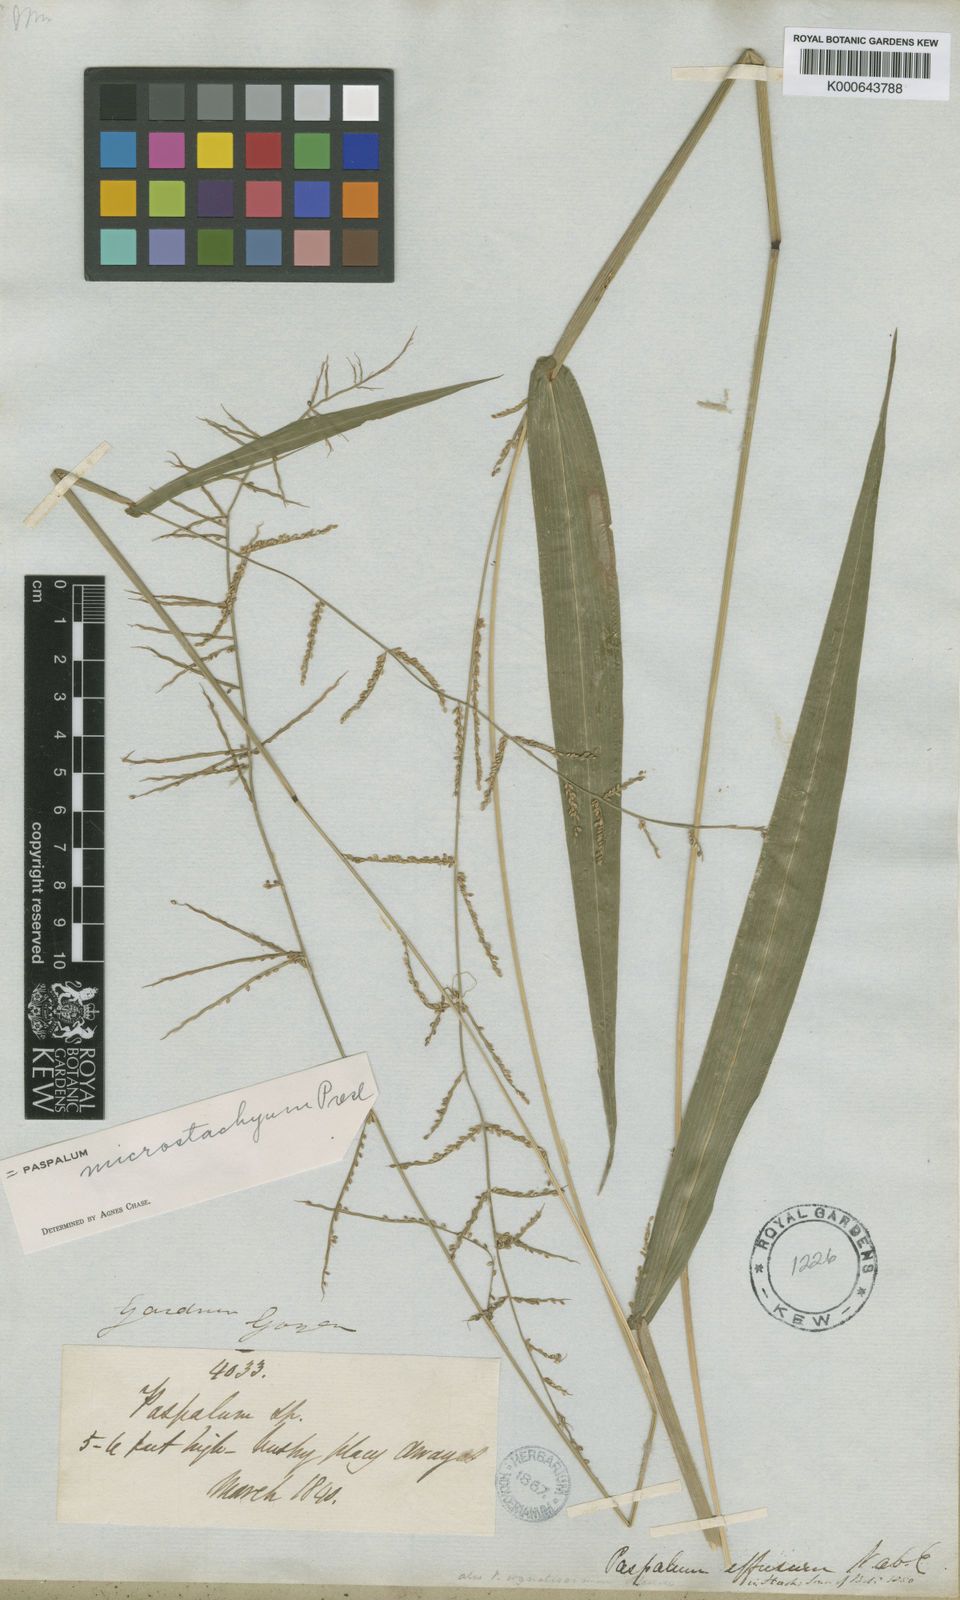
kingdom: Plantae
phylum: Tracheophyta
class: Liliopsida
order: Poales
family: Poaceae
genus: Paspalum
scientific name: Paspalum microstachyum
